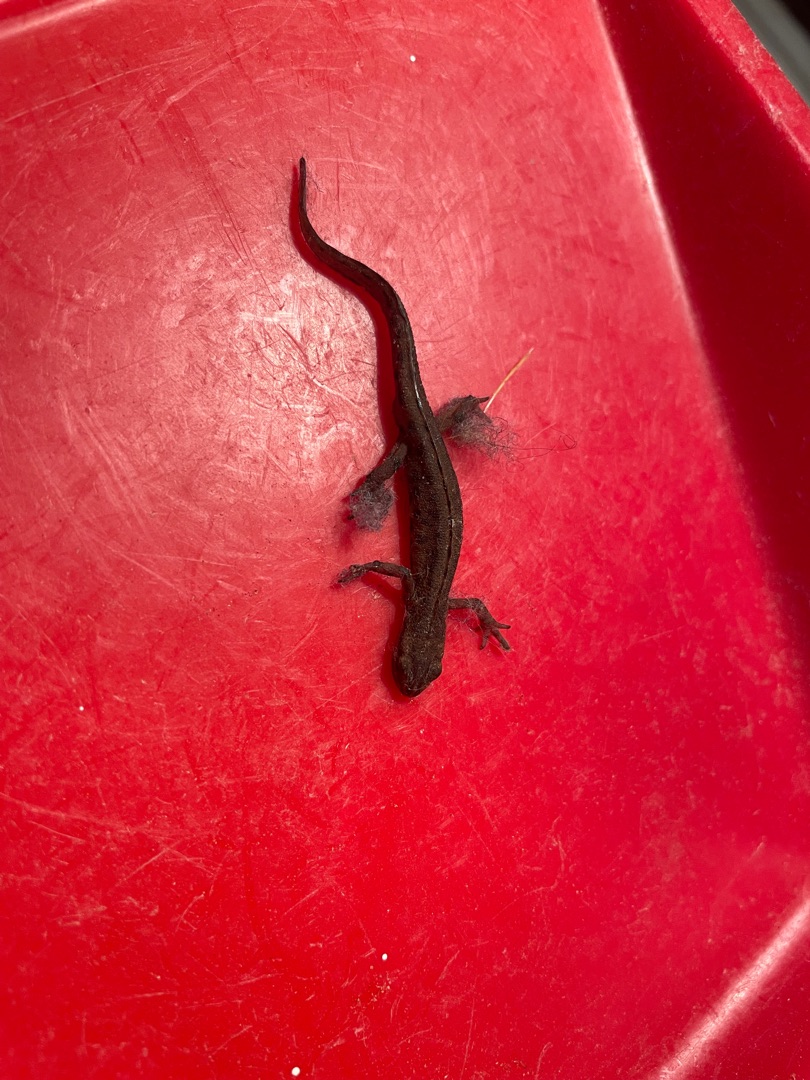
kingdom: Animalia
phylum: Chordata
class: Amphibia
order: Caudata
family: Salamandridae
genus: Lissotriton
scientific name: Lissotriton vulgaris
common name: Lille vandsalamander
